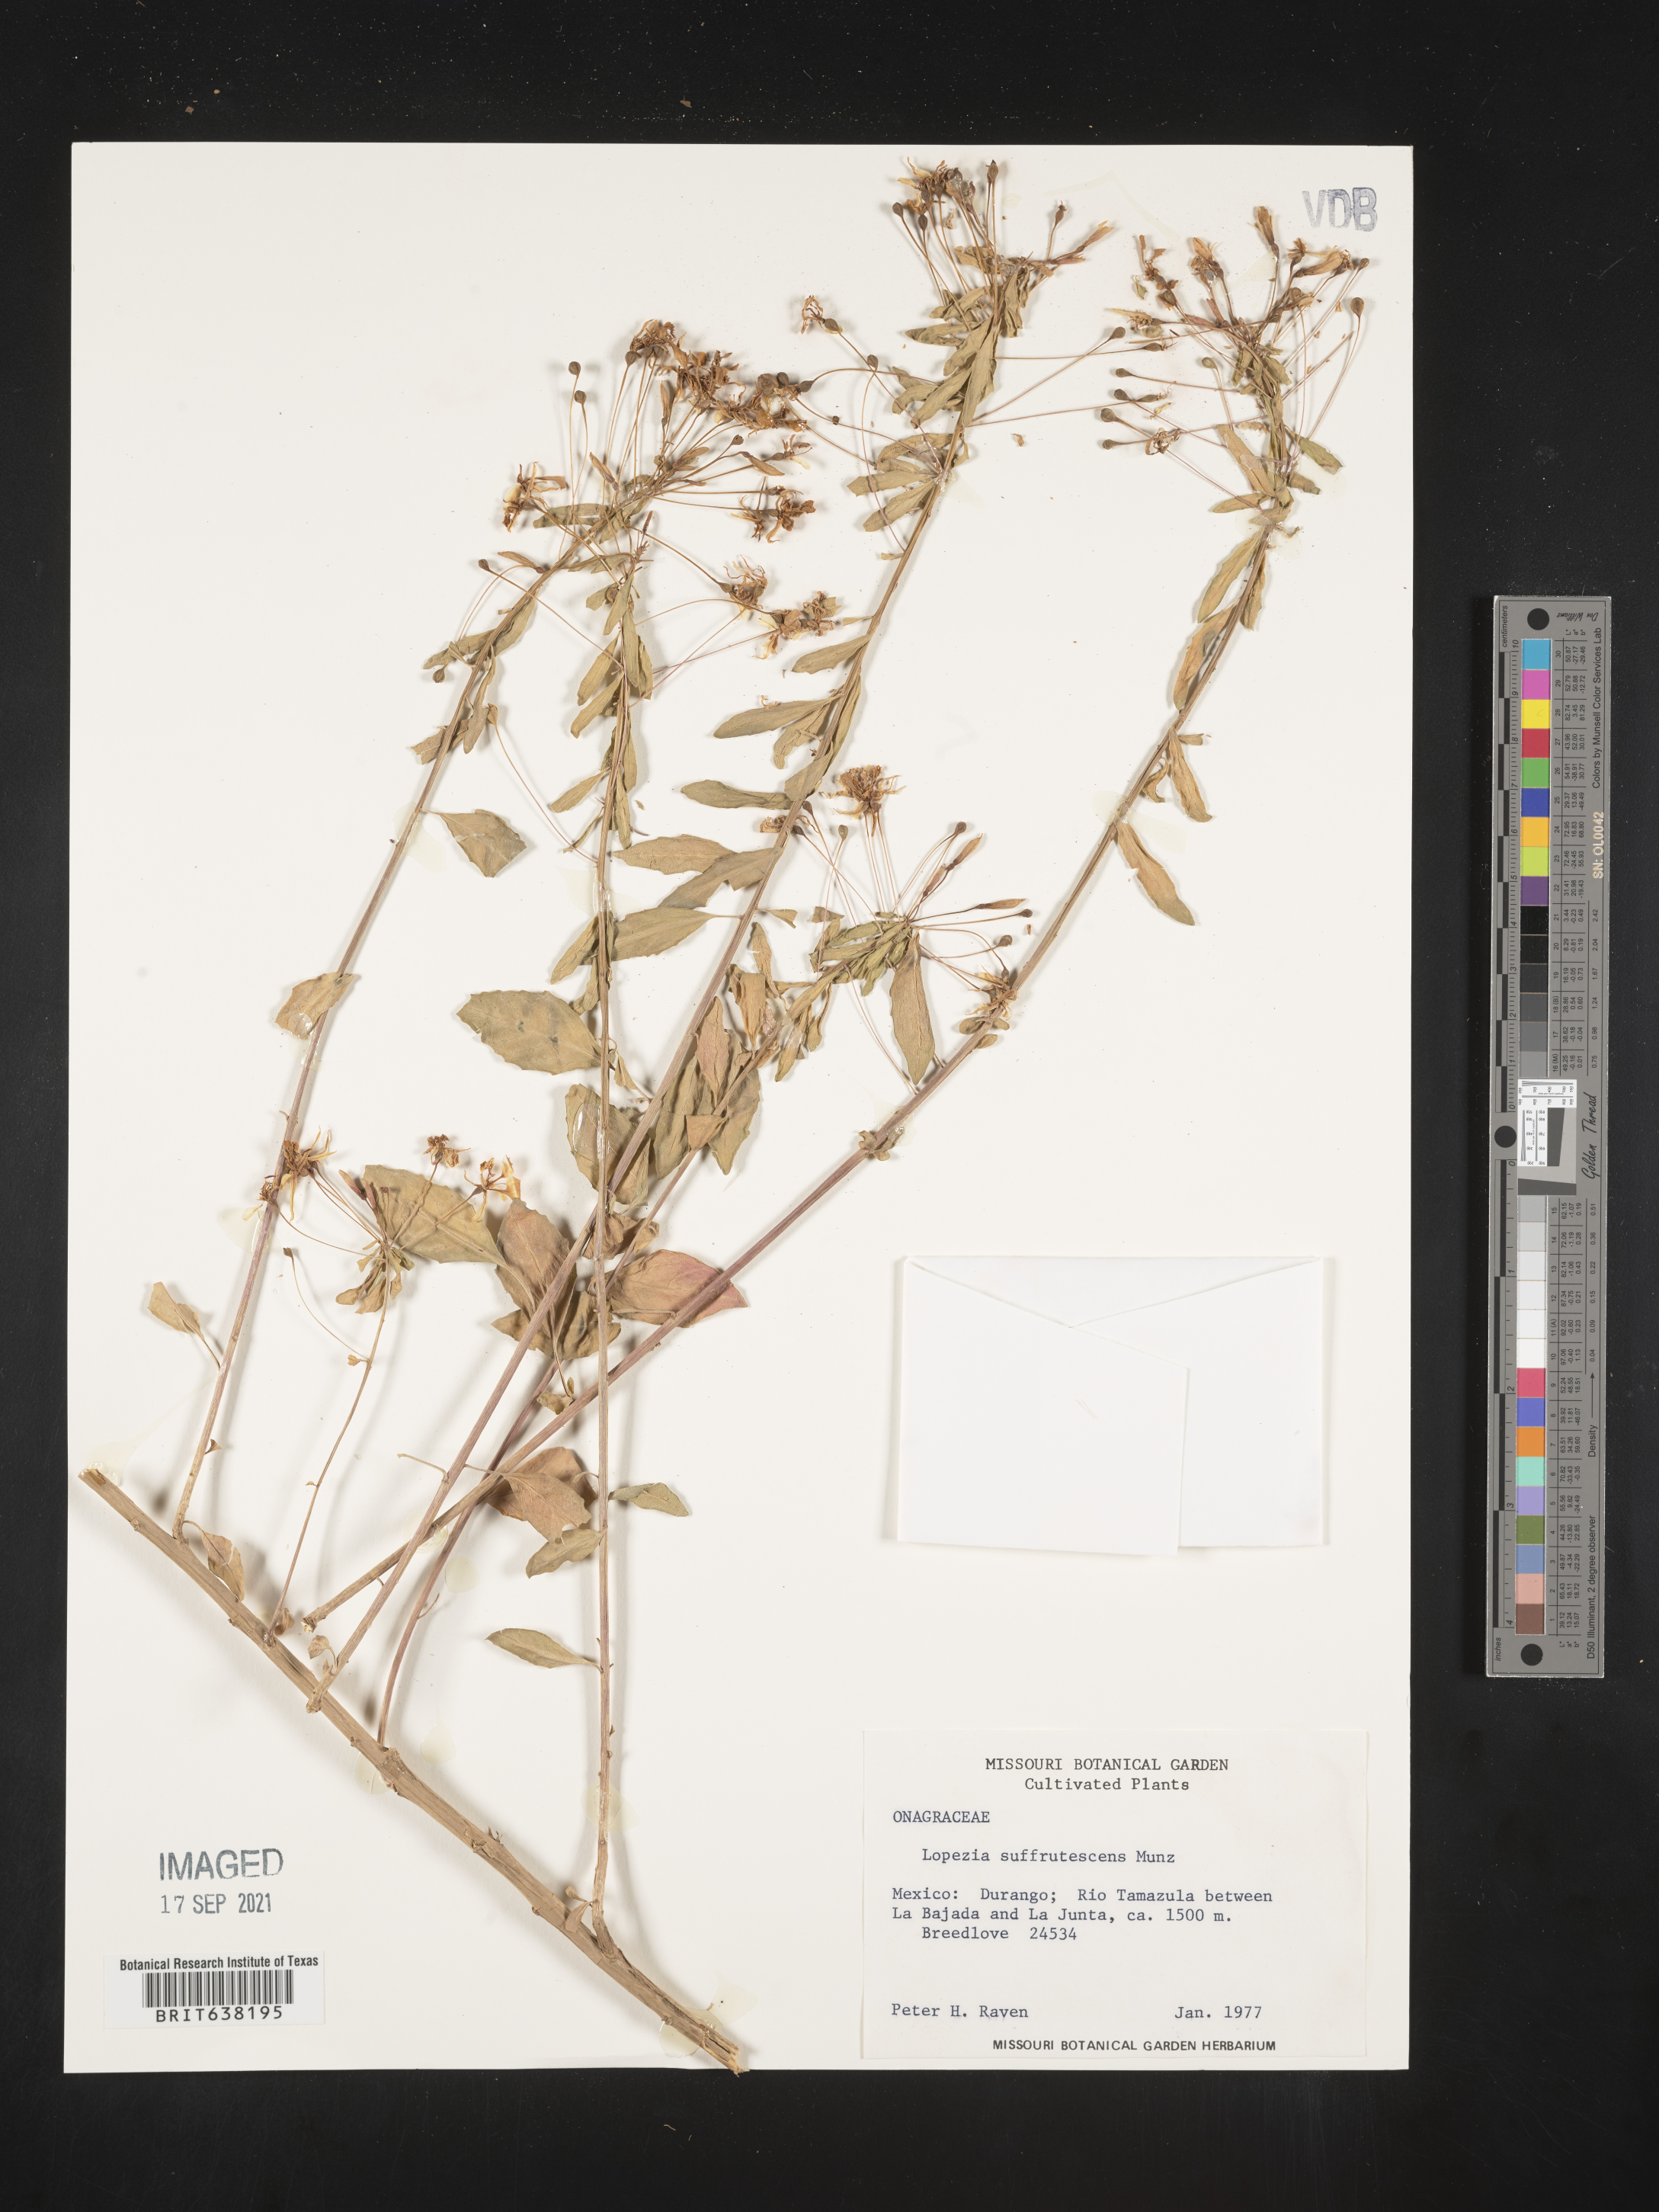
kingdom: Plantae
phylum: Tracheophyta
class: Magnoliopsida
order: Myrtales
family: Onagraceae
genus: Lopezia
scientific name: Lopezia
